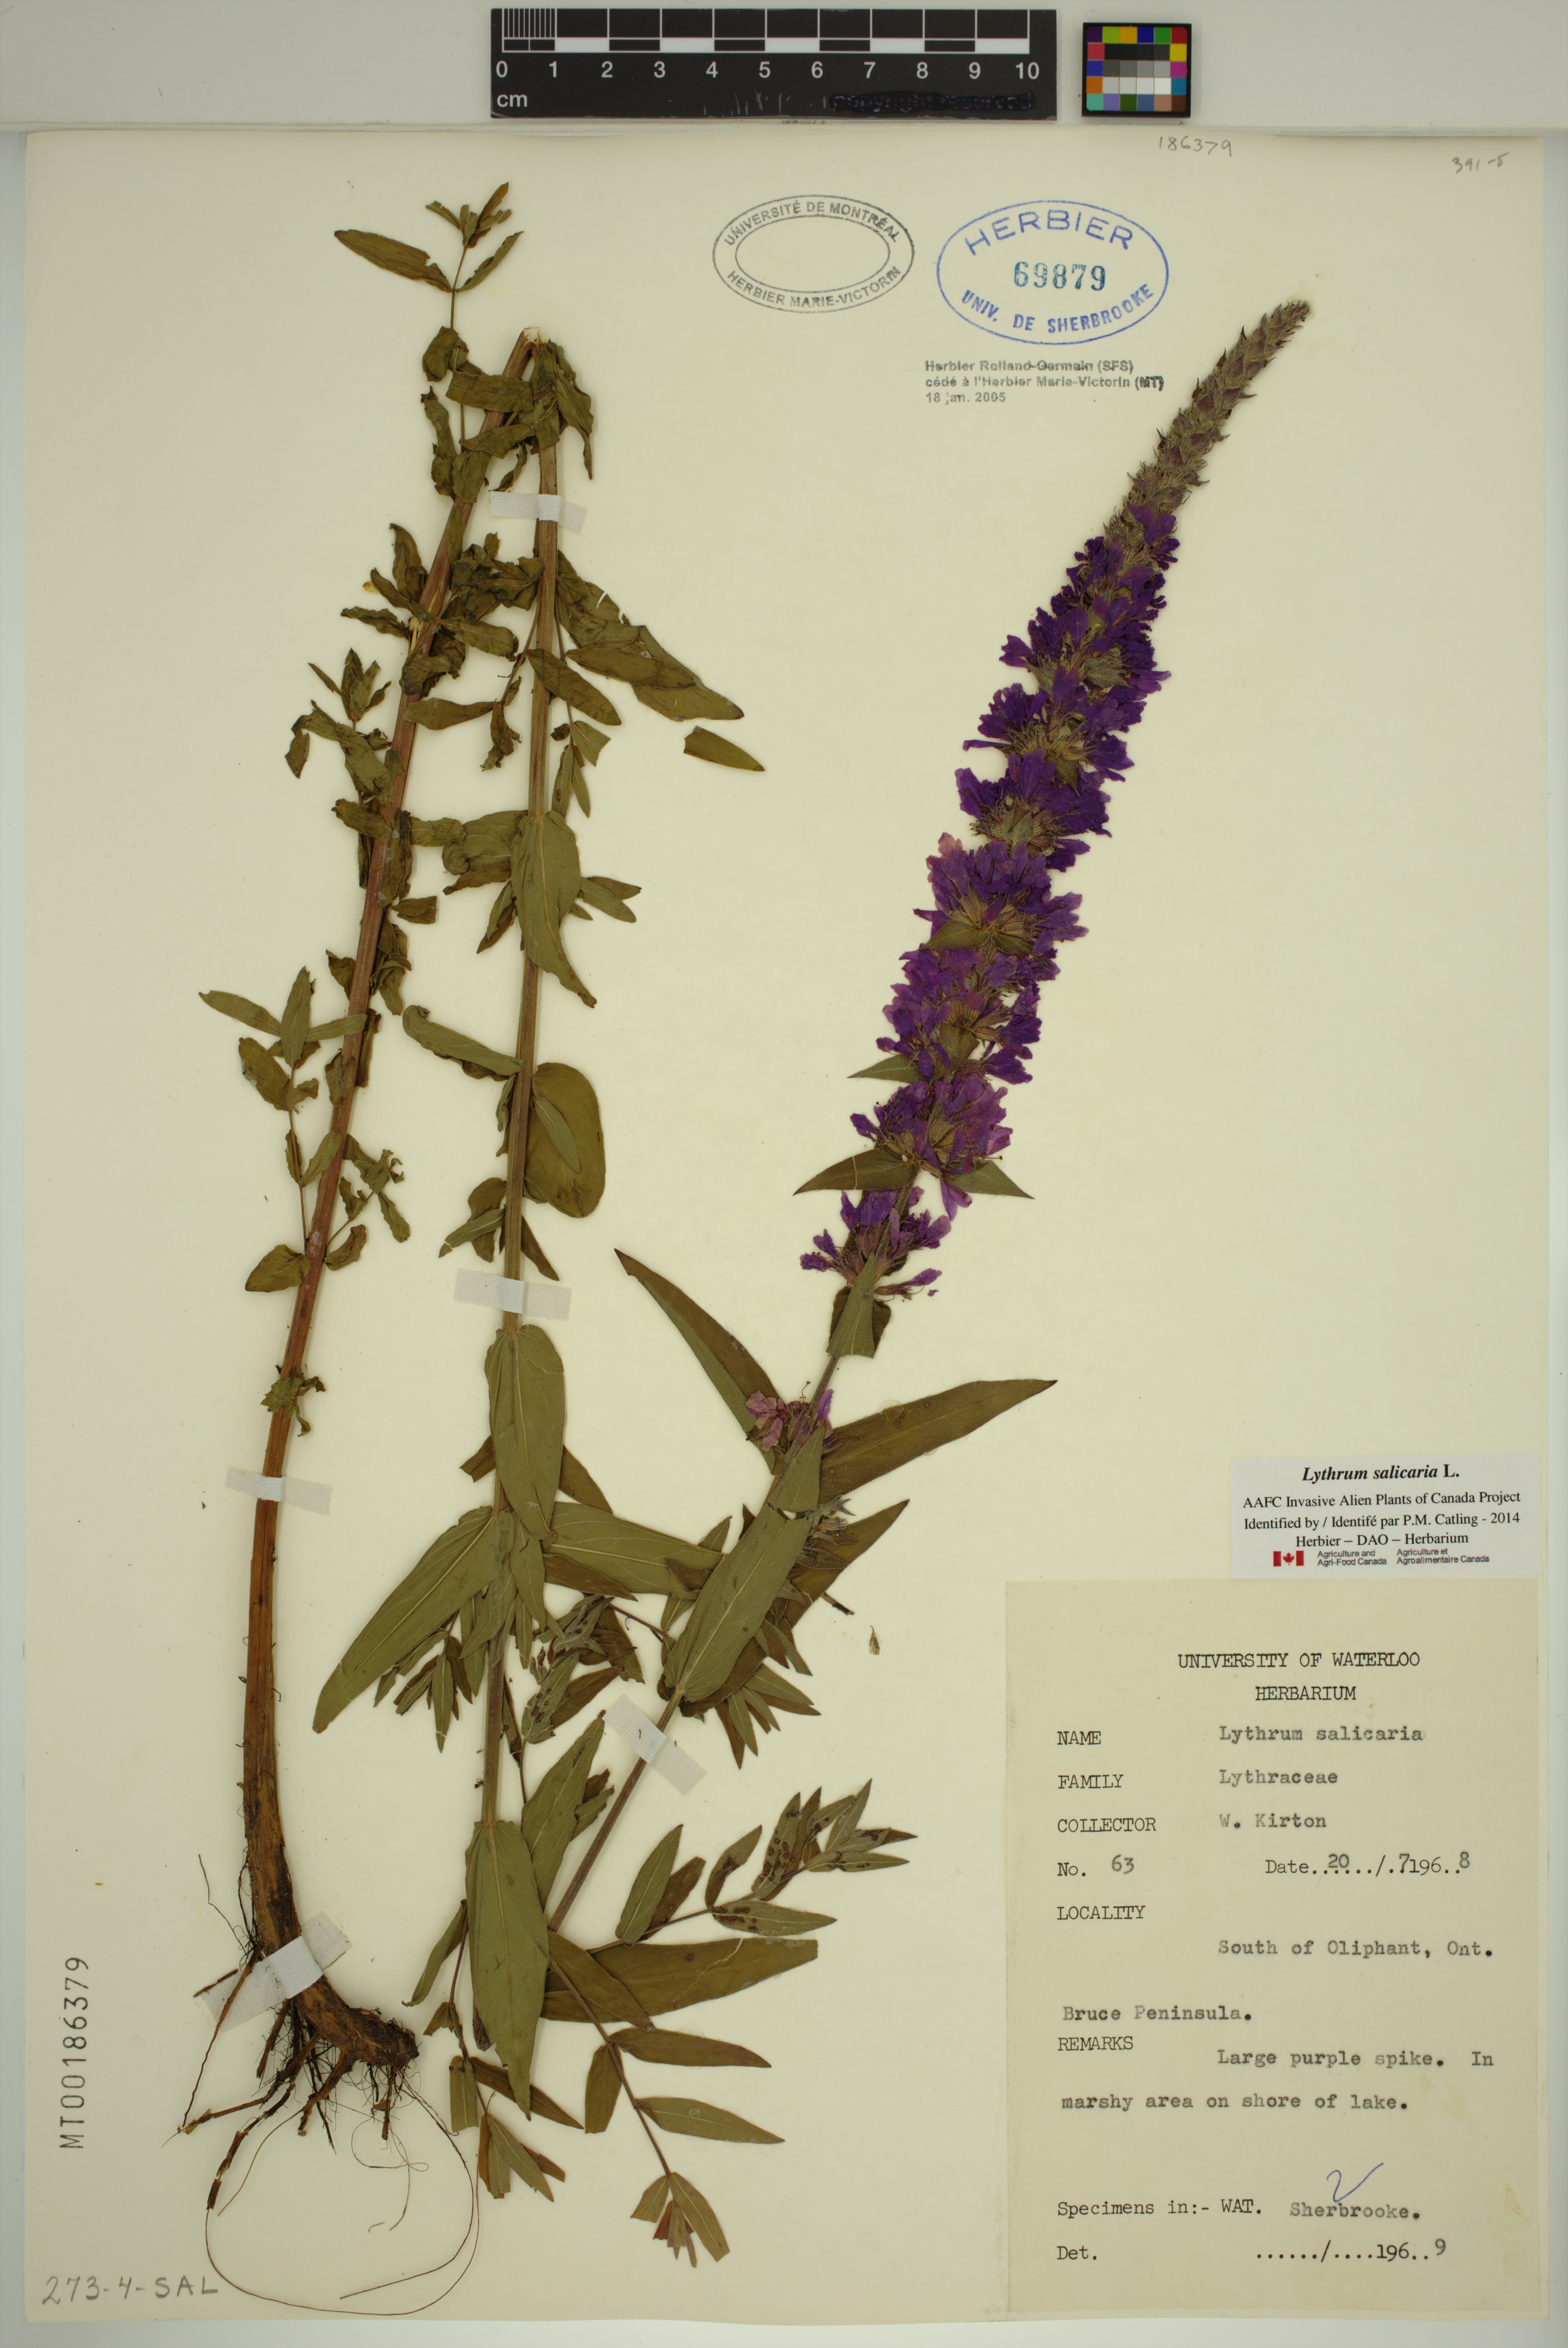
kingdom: Plantae
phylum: Tracheophyta
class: Magnoliopsida
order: Myrtales
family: Lythraceae
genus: Lythrum
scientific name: Lythrum salicaria
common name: Purple loosestrife
